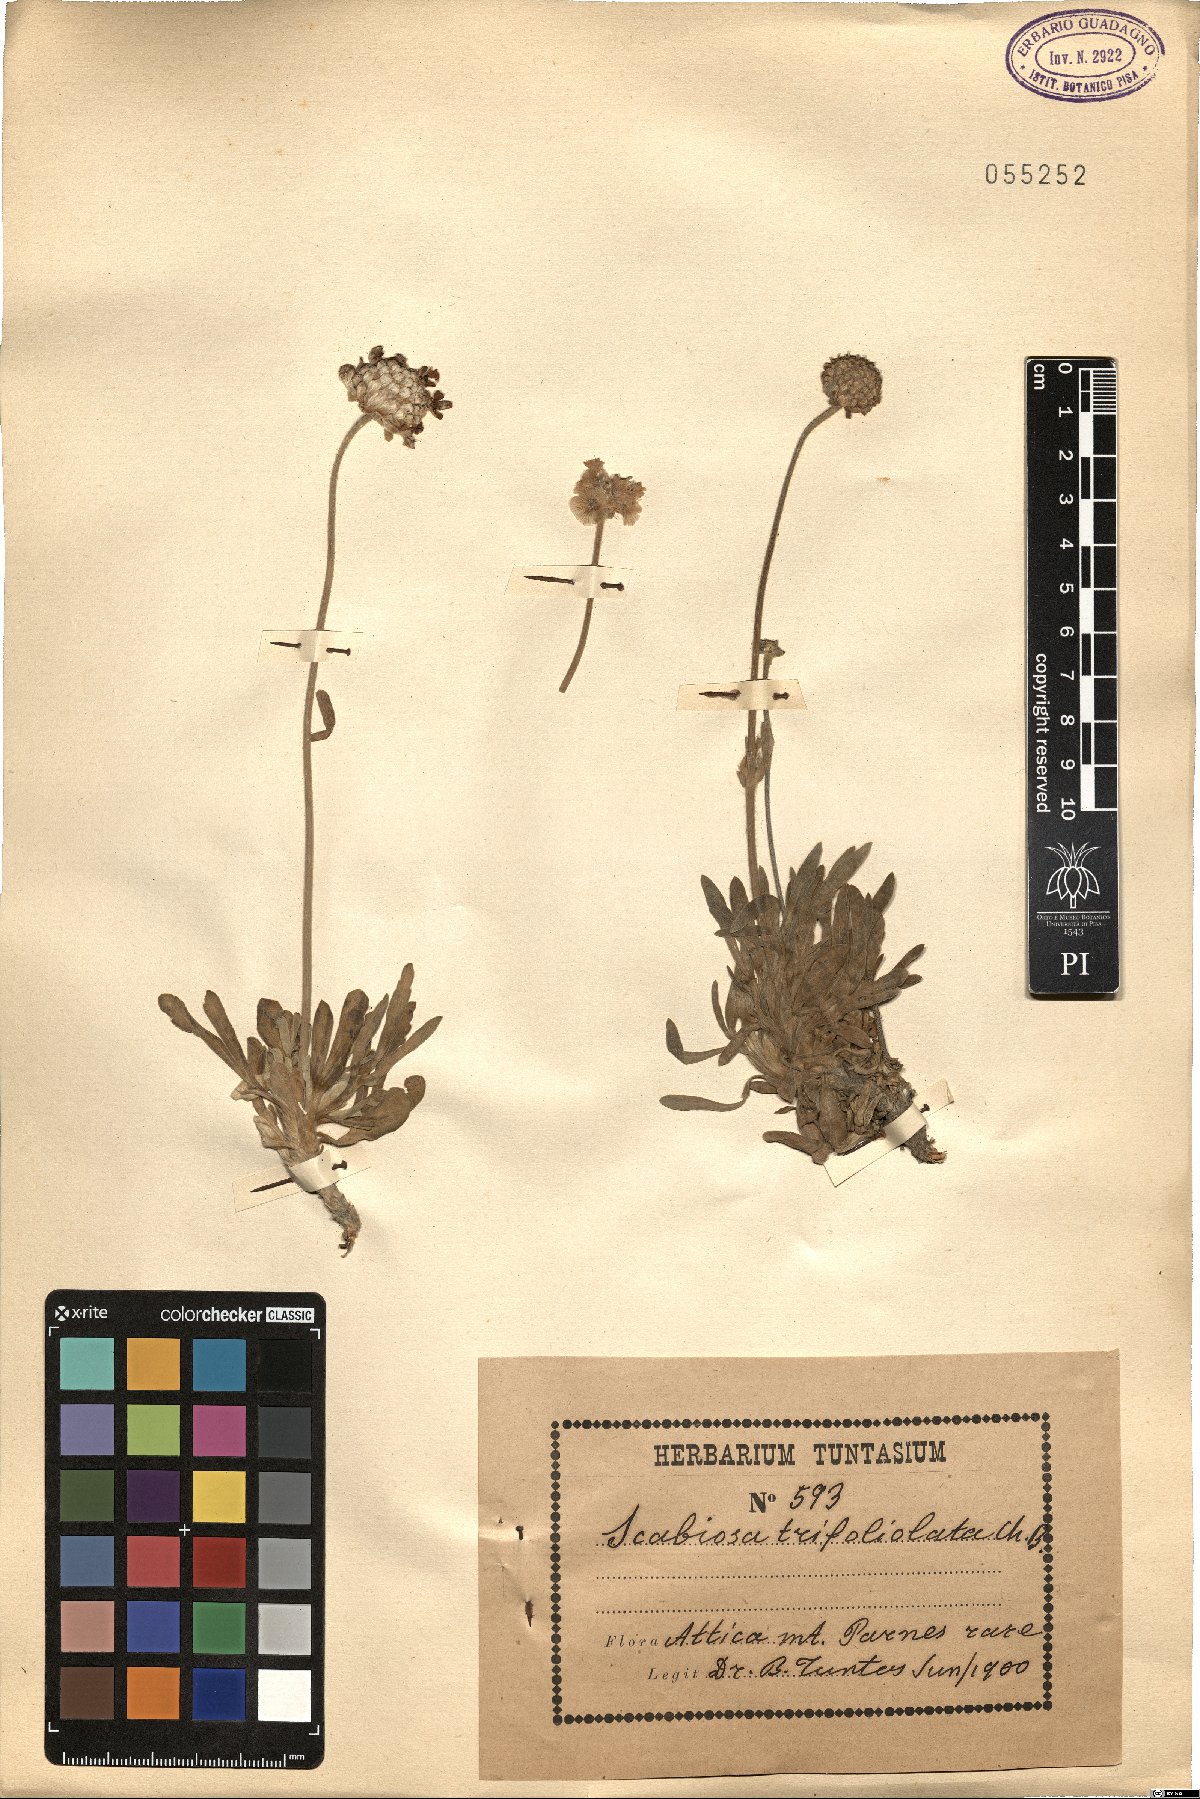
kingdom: Plantae
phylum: Tracheophyta
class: Magnoliopsida
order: Dipsacales
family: Caprifoliaceae
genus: Lomelosia
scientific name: Lomelosia hymettia
